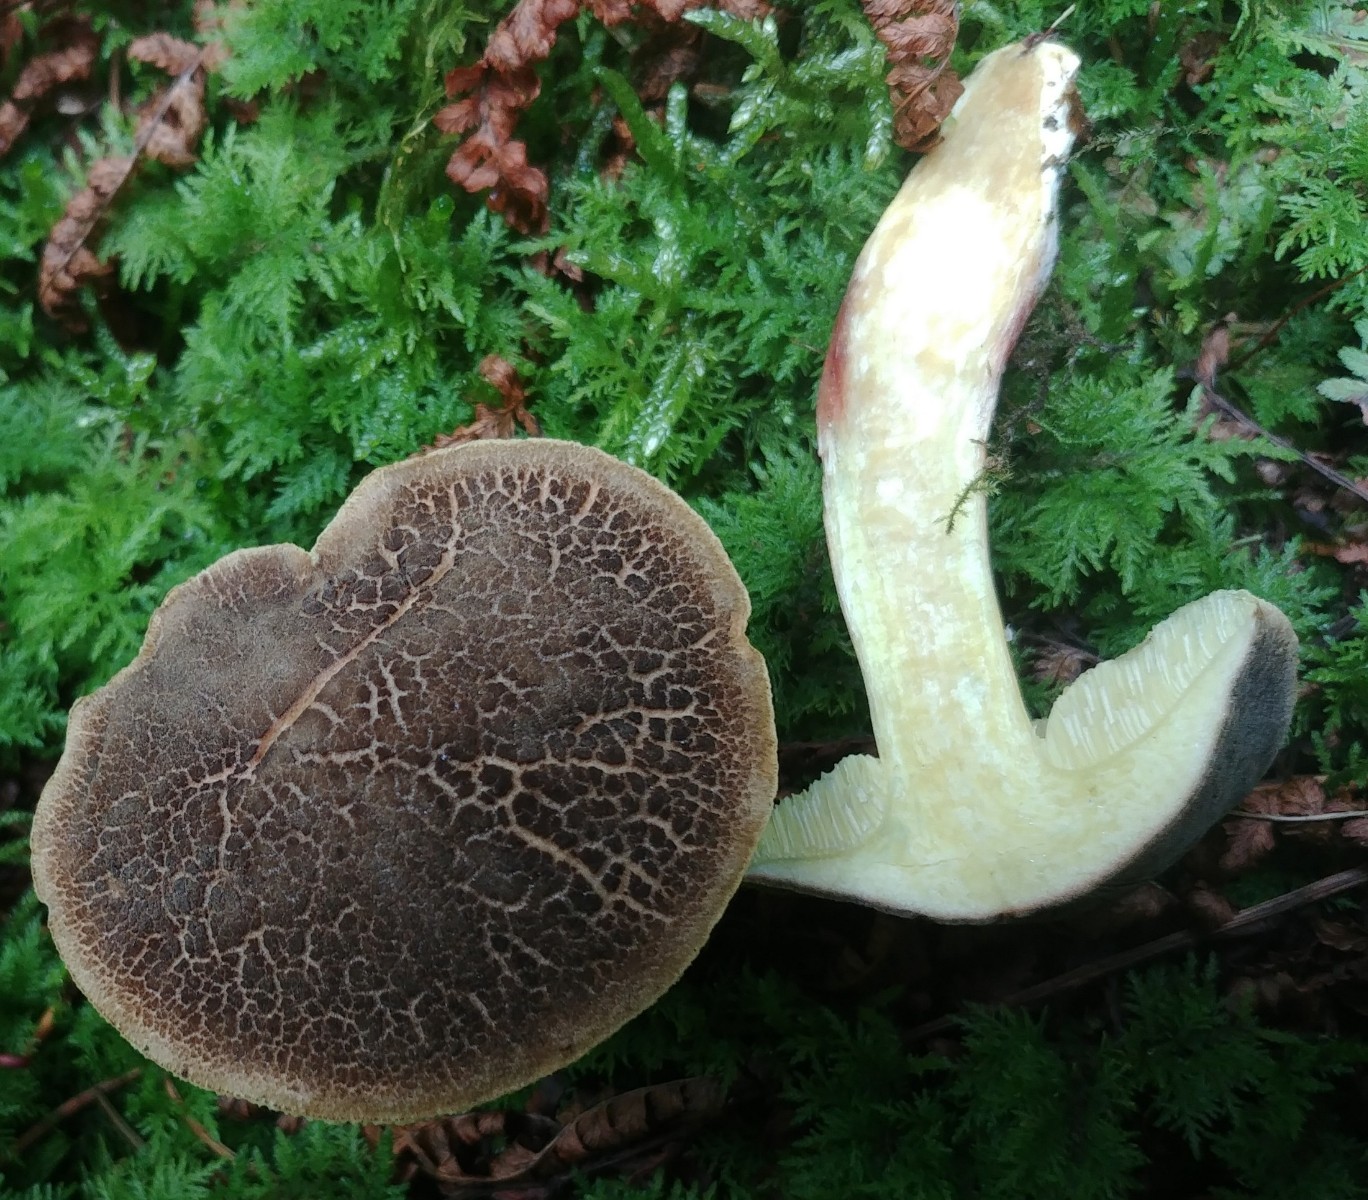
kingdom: Fungi
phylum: Basidiomycota
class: Agaricomycetes
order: Boletales
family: Boletaceae
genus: Xerocomellus
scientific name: Xerocomellus chrysenteron
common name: rødsprukken rørhat
